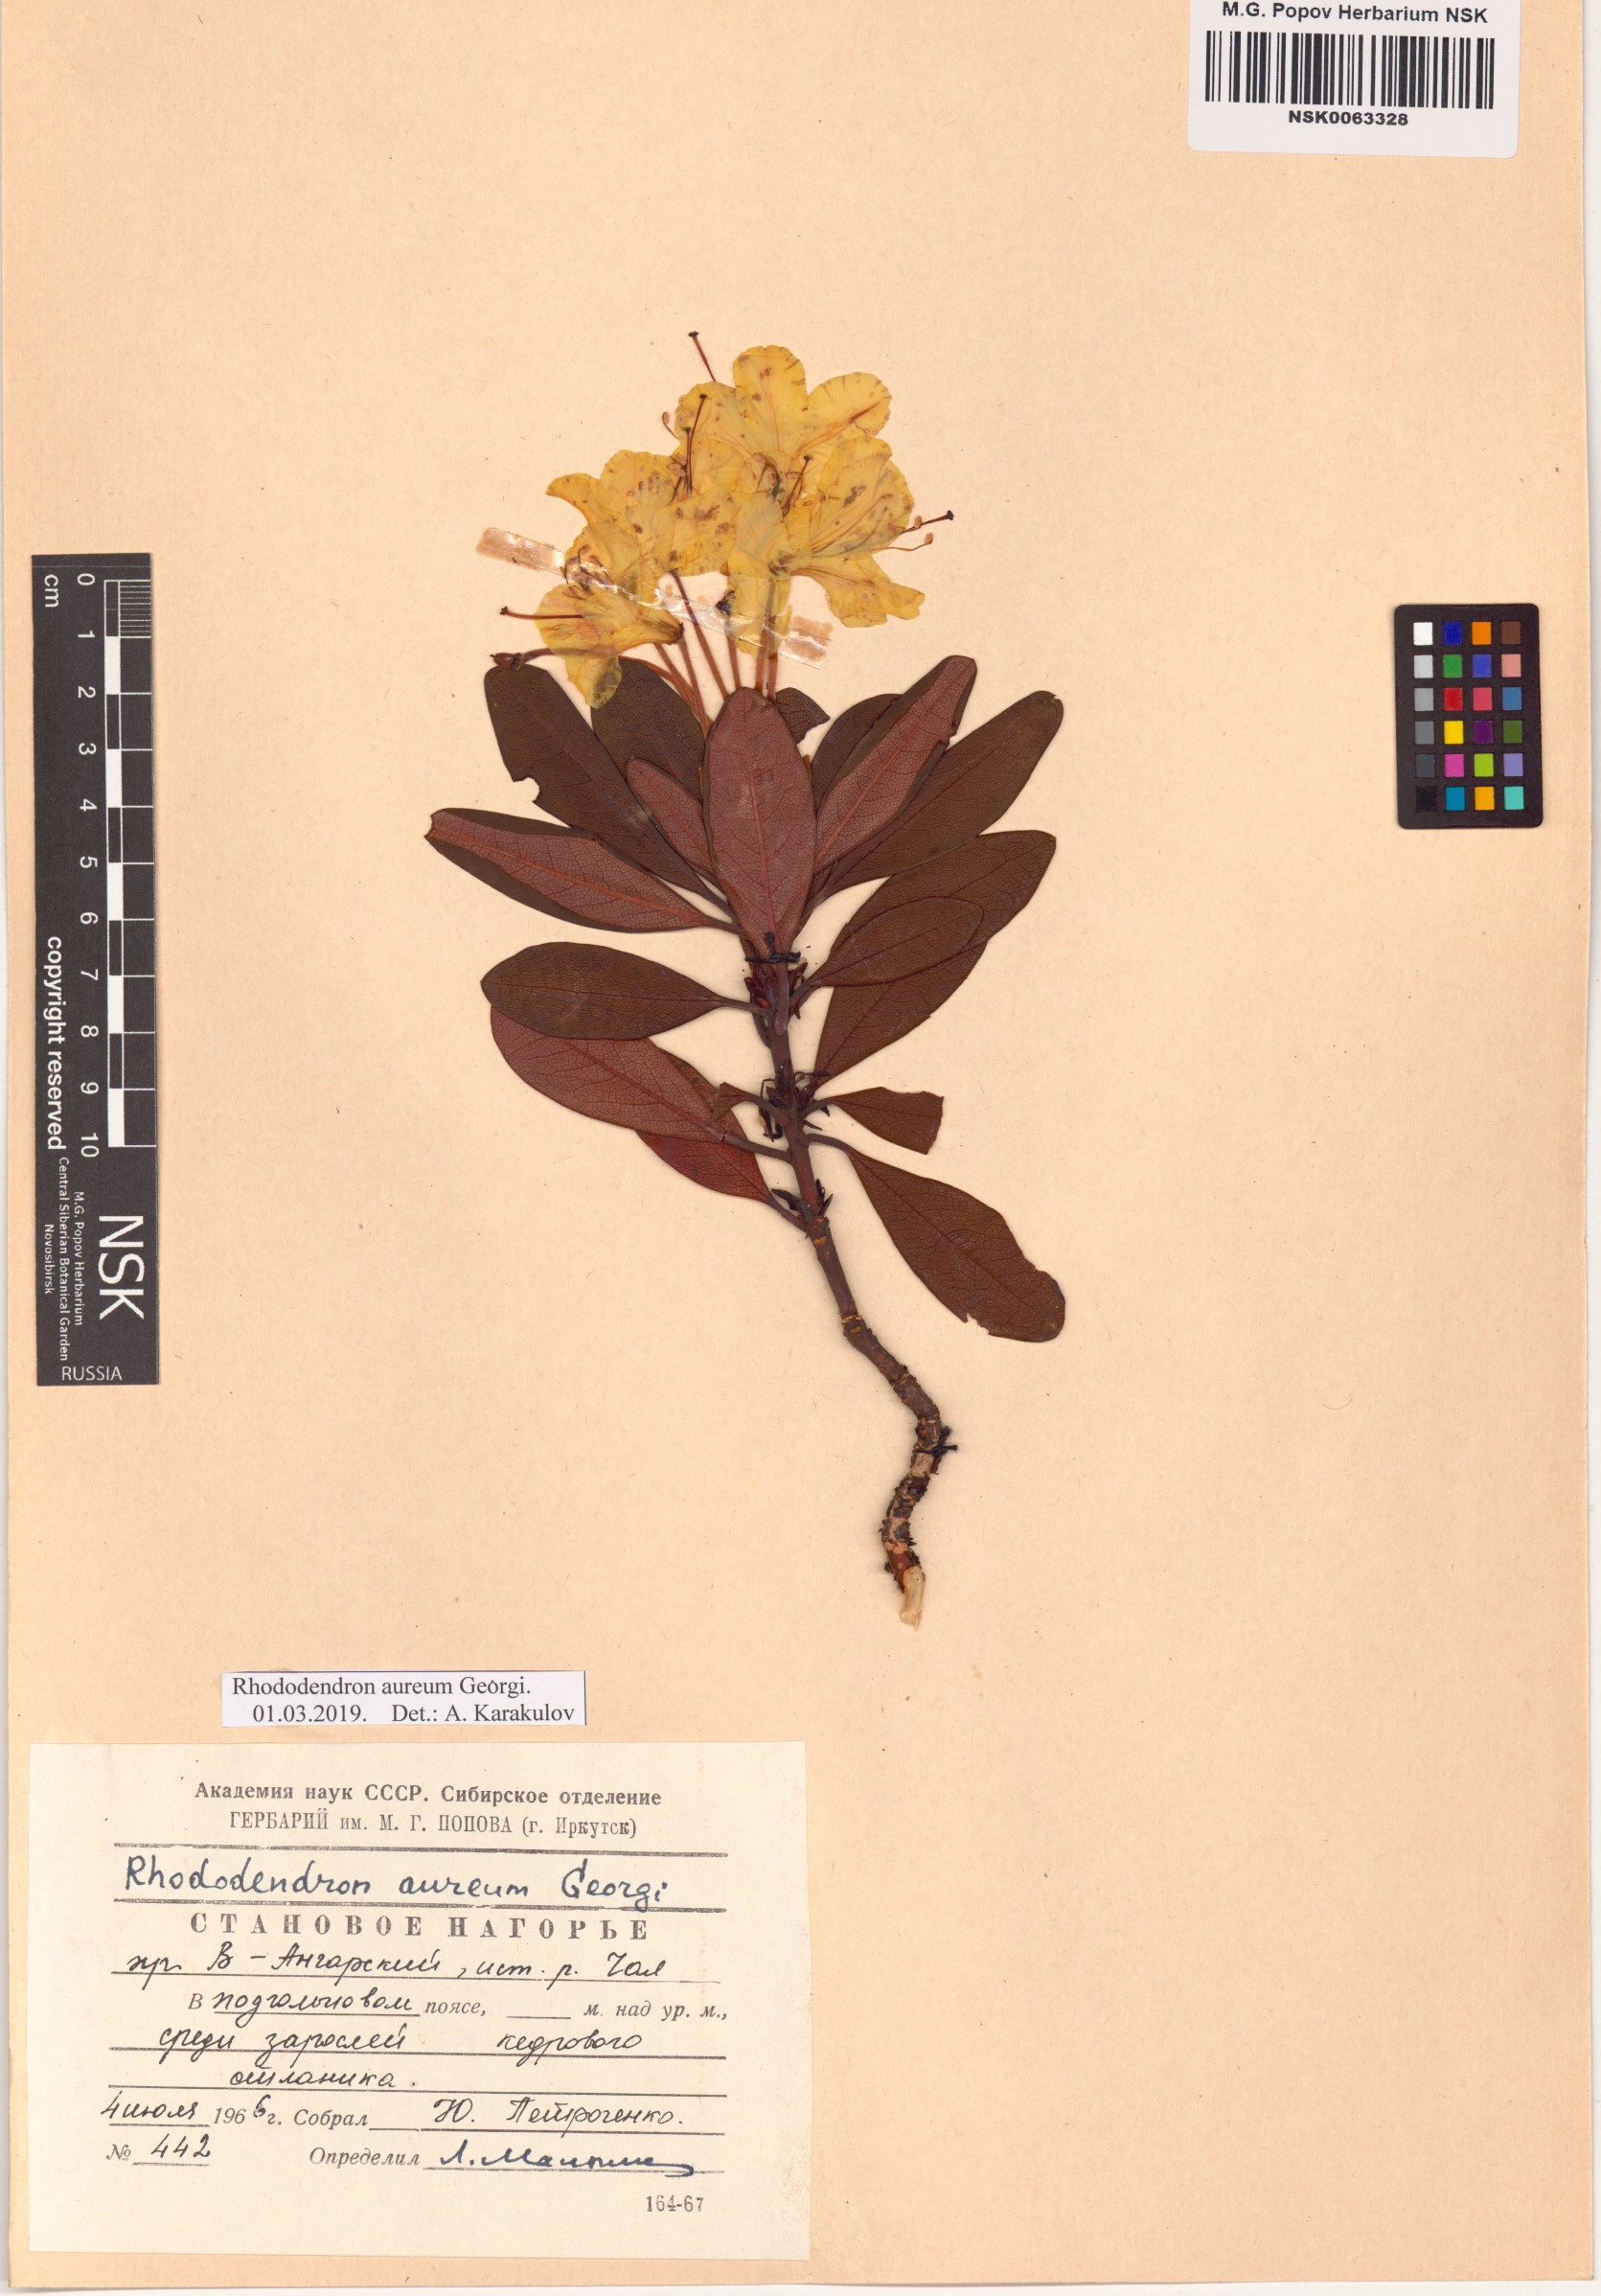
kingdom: Plantae
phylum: Tracheophyta
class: Magnoliopsida
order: Ericales
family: Ericaceae
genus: Rhododendron
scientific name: Rhododendron aureum
